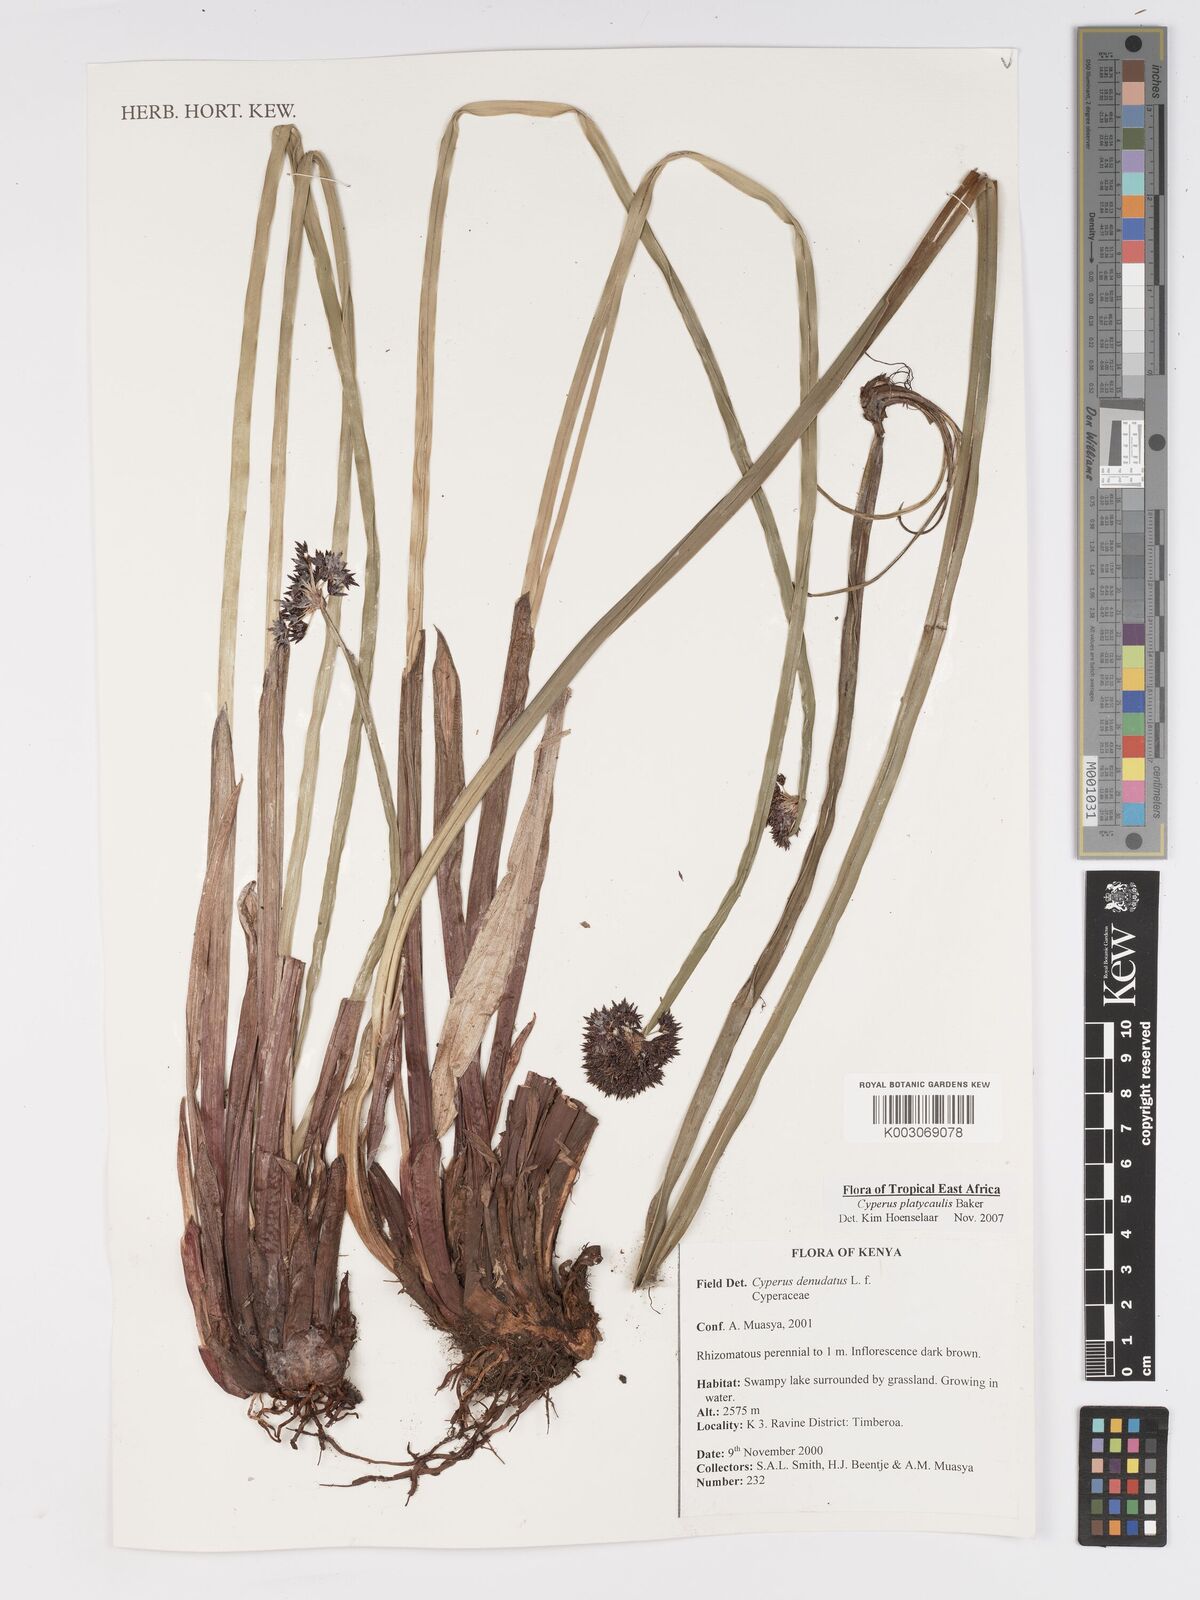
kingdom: Plantae
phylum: Tracheophyta
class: Liliopsida
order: Poales
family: Cyperaceae
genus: Cyperus
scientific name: Cyperus platycaulis
